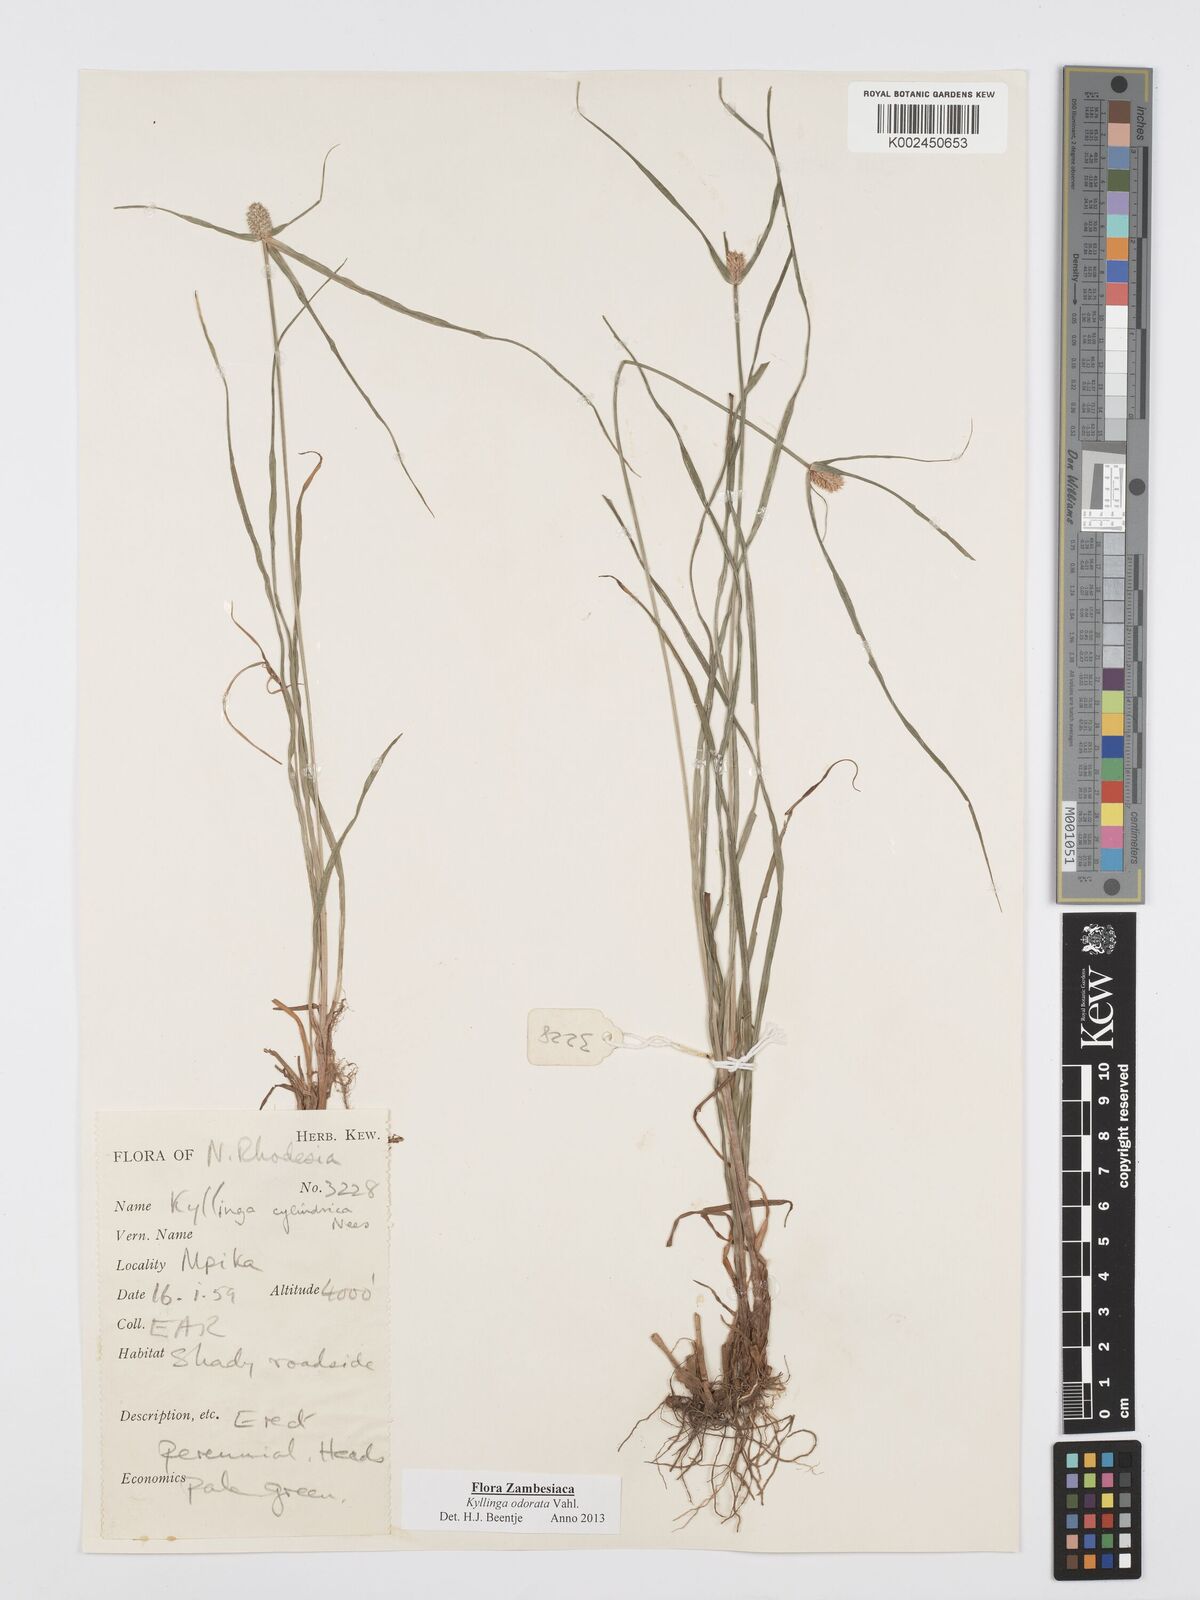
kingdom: Plantae
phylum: Tracheophyta
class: Liliopsida
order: Poales
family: Cyperaceae
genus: Cyperus
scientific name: Cyperus
